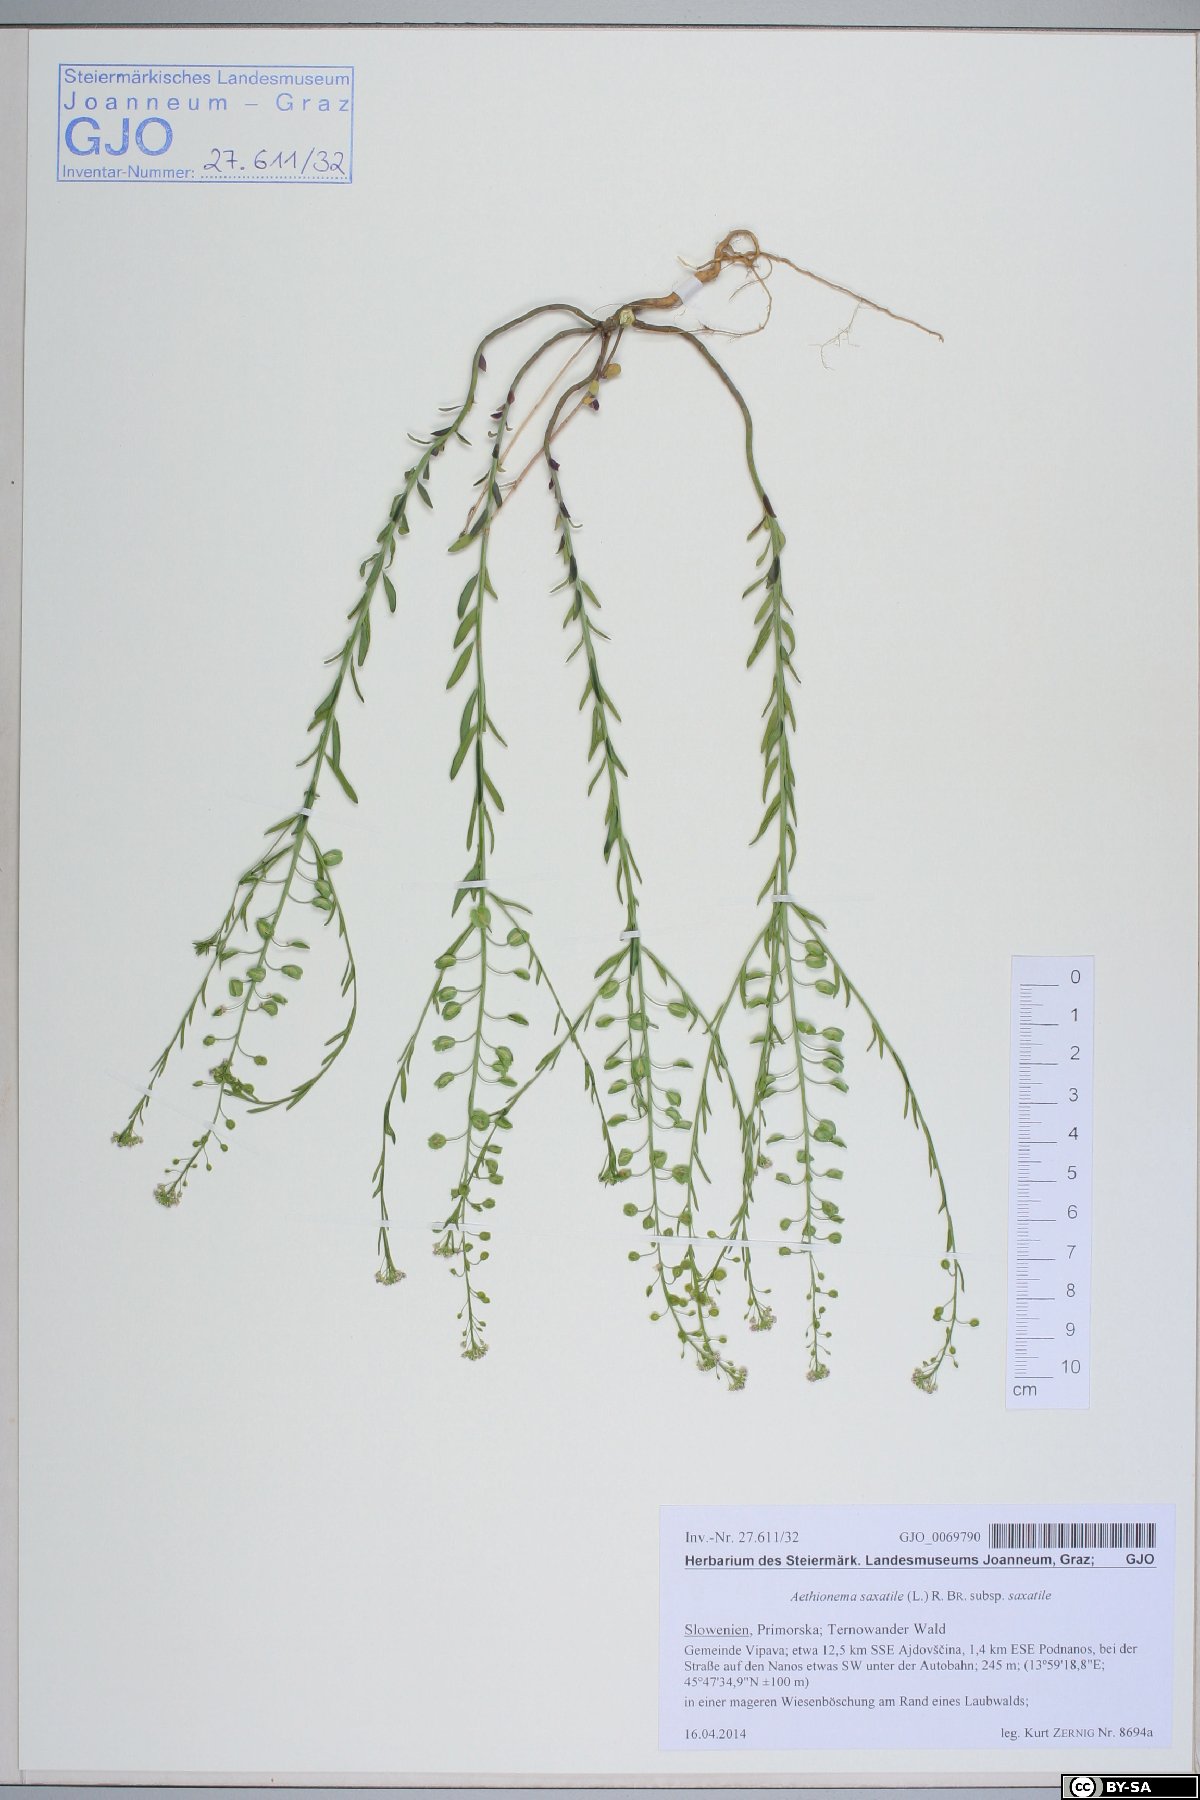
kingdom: Plantae
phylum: Tracheophyta
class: Magnoliopsida
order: Brassicales
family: Brassicaceae
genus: Aethionema
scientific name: Aethionema saxatile
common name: Burnt candytuft
